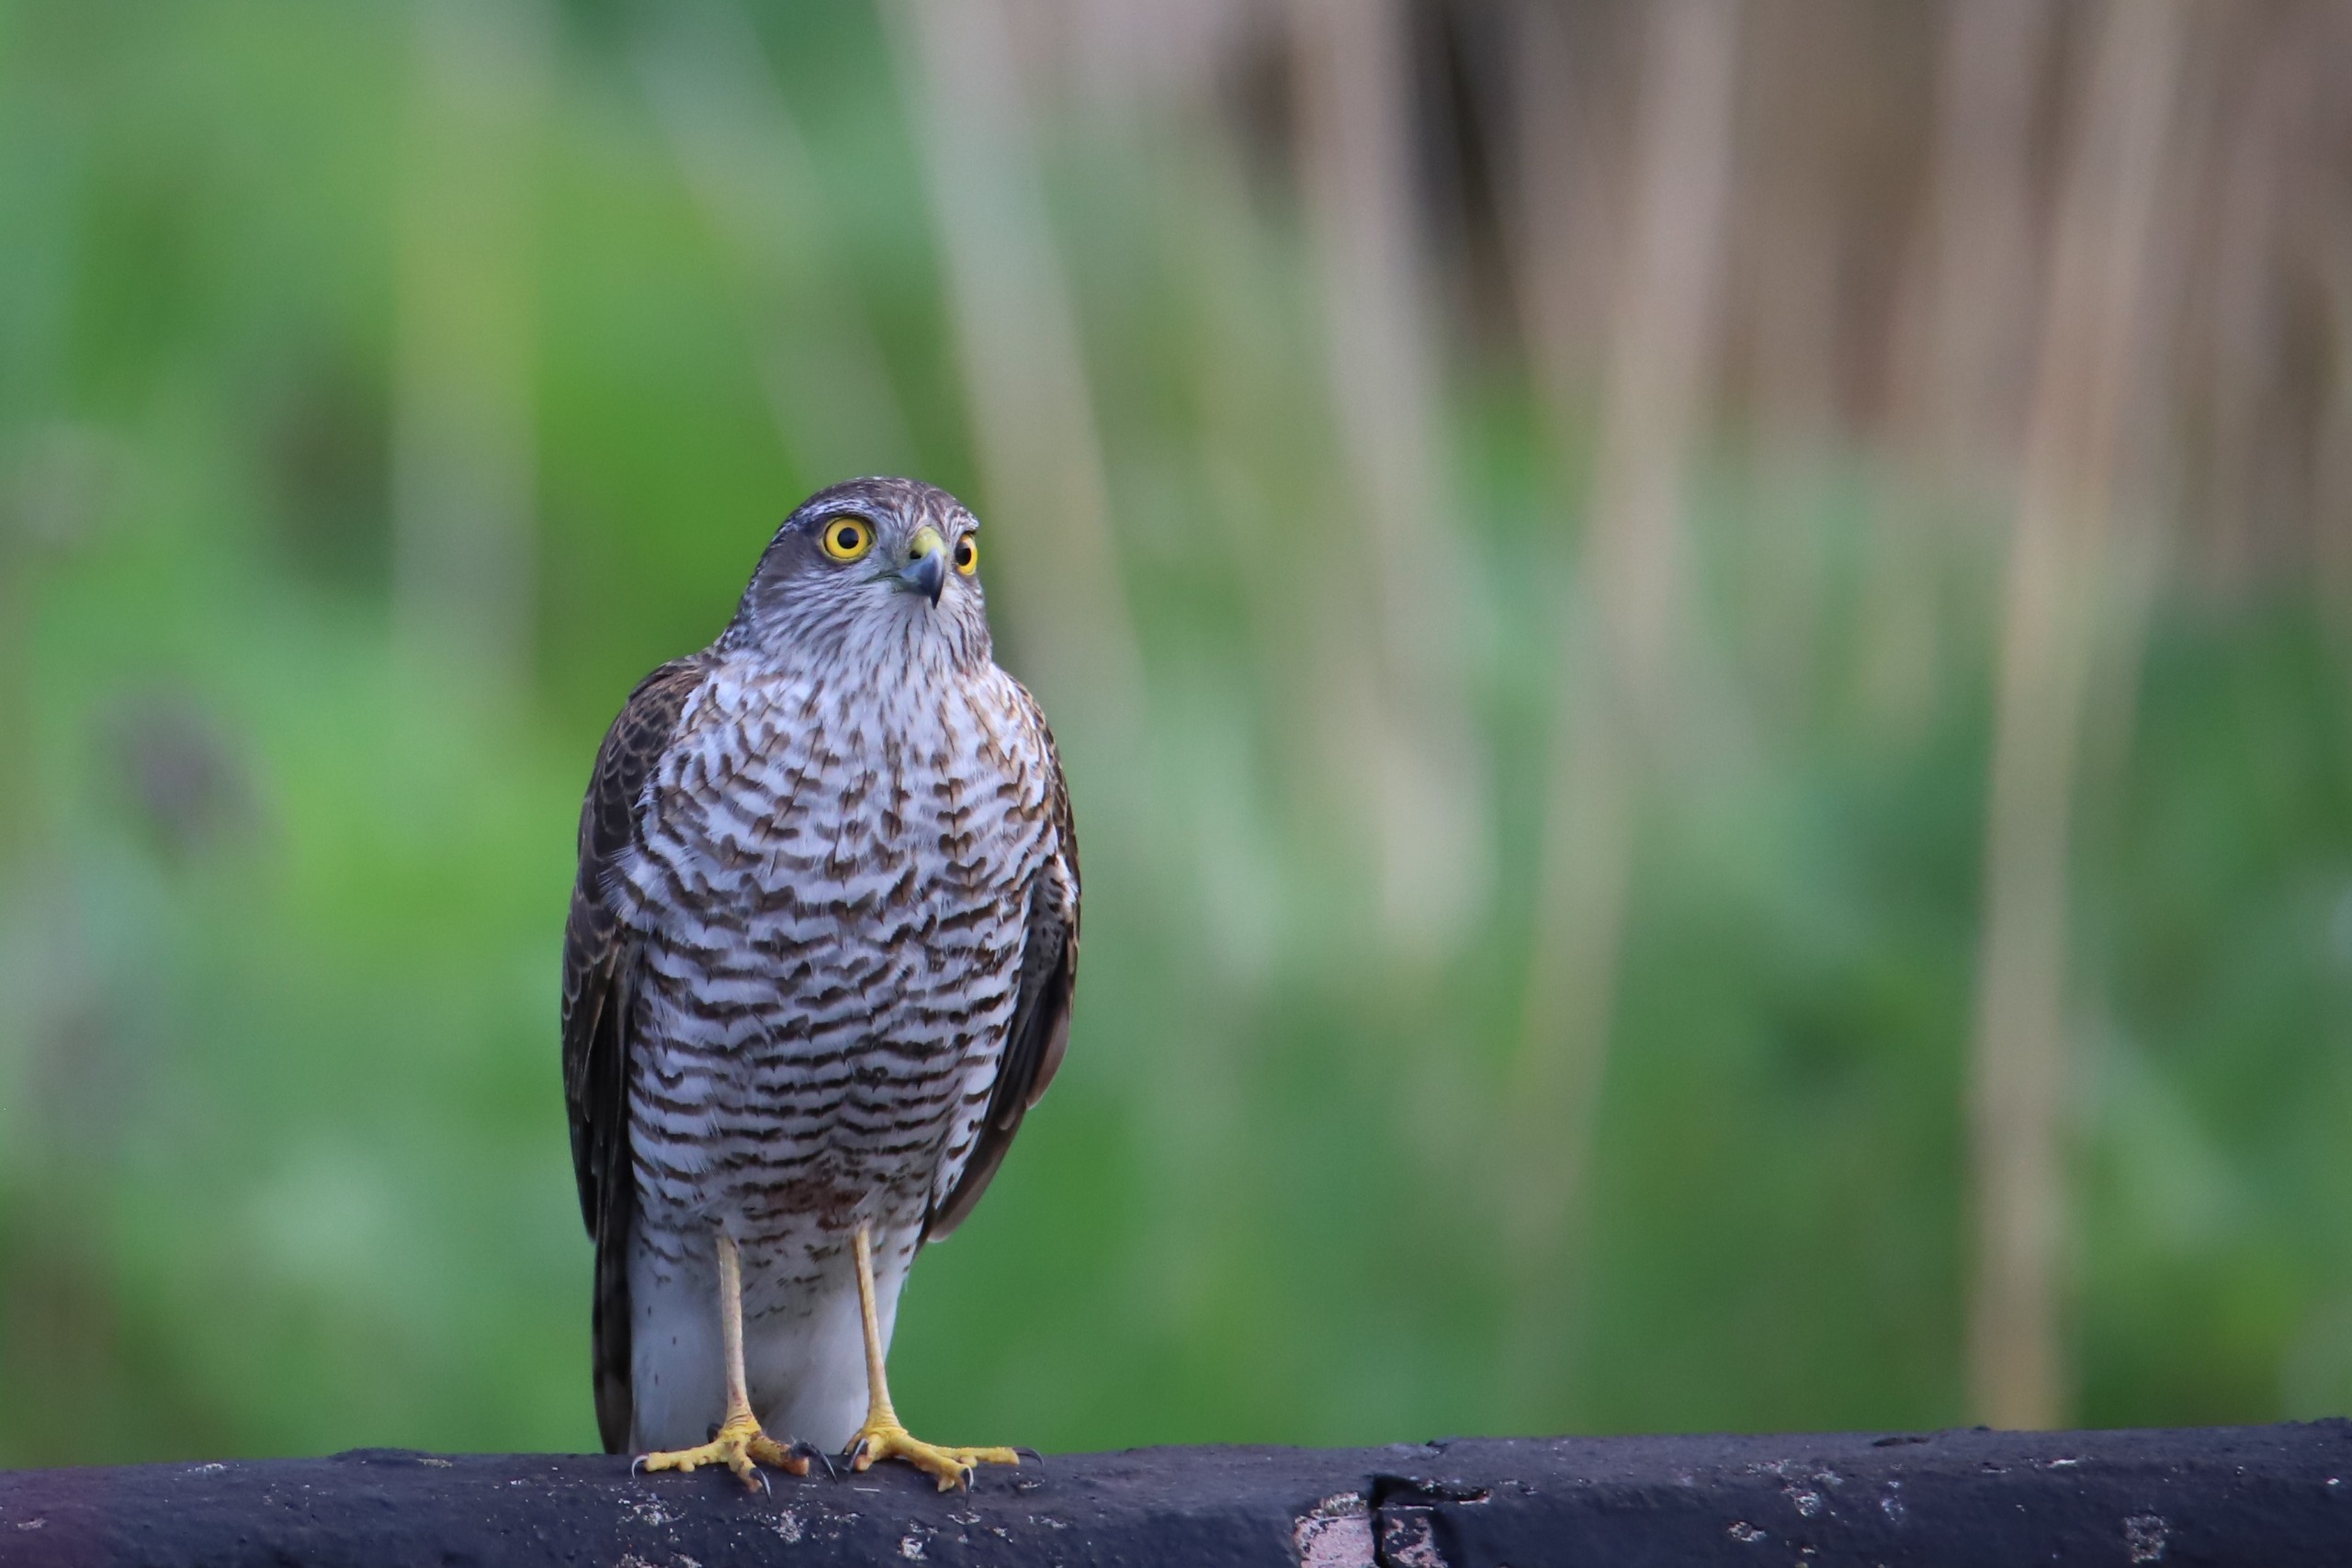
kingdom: Animalia
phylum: Chordata
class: Aves
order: Accipitriformes
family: Accipitridae
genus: Accipiter
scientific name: Accipiter nisus
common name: Spurvehøg
